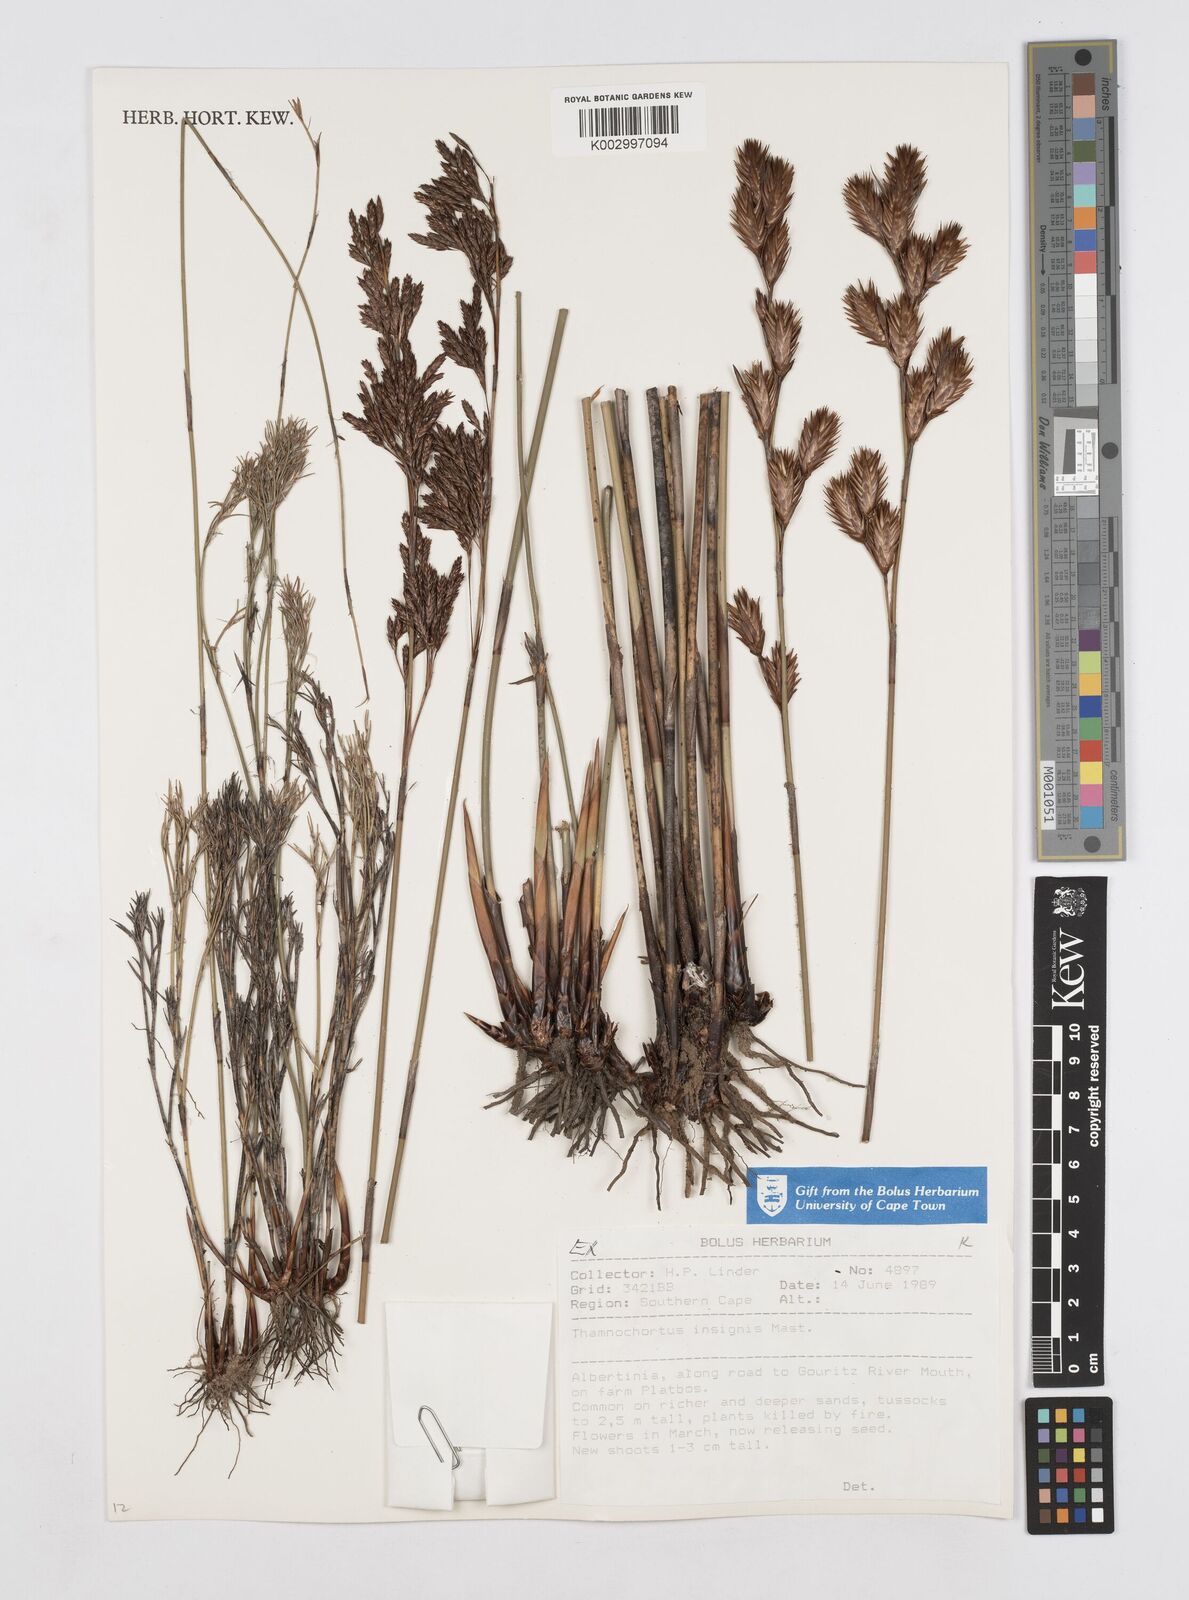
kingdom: Plantae
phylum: Tracheophyta
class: Liliopsida
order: Poales
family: Restionaceae
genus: Thamnochortus
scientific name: Thamnochortus insignis
